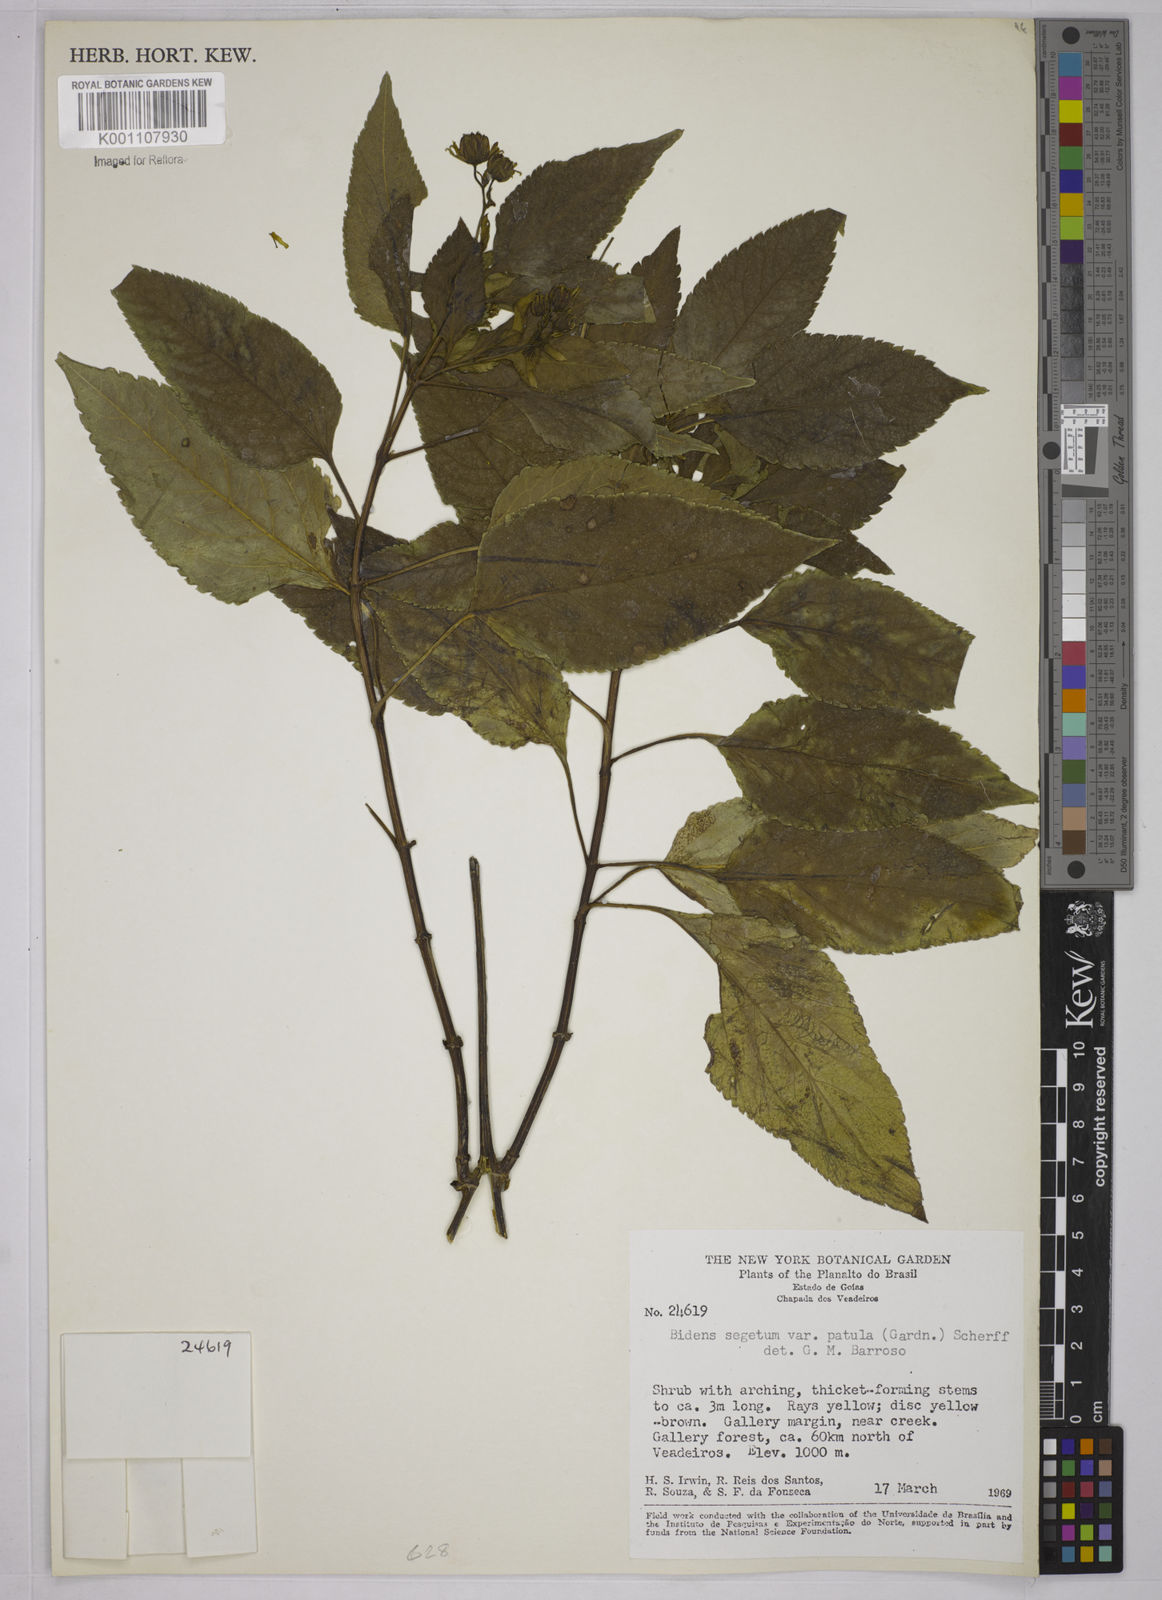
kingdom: Plantae
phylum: Tracheophyta
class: Magnoliopsida
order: Asterales
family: Asteraceae
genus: Bidens
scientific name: Bidens segetum
